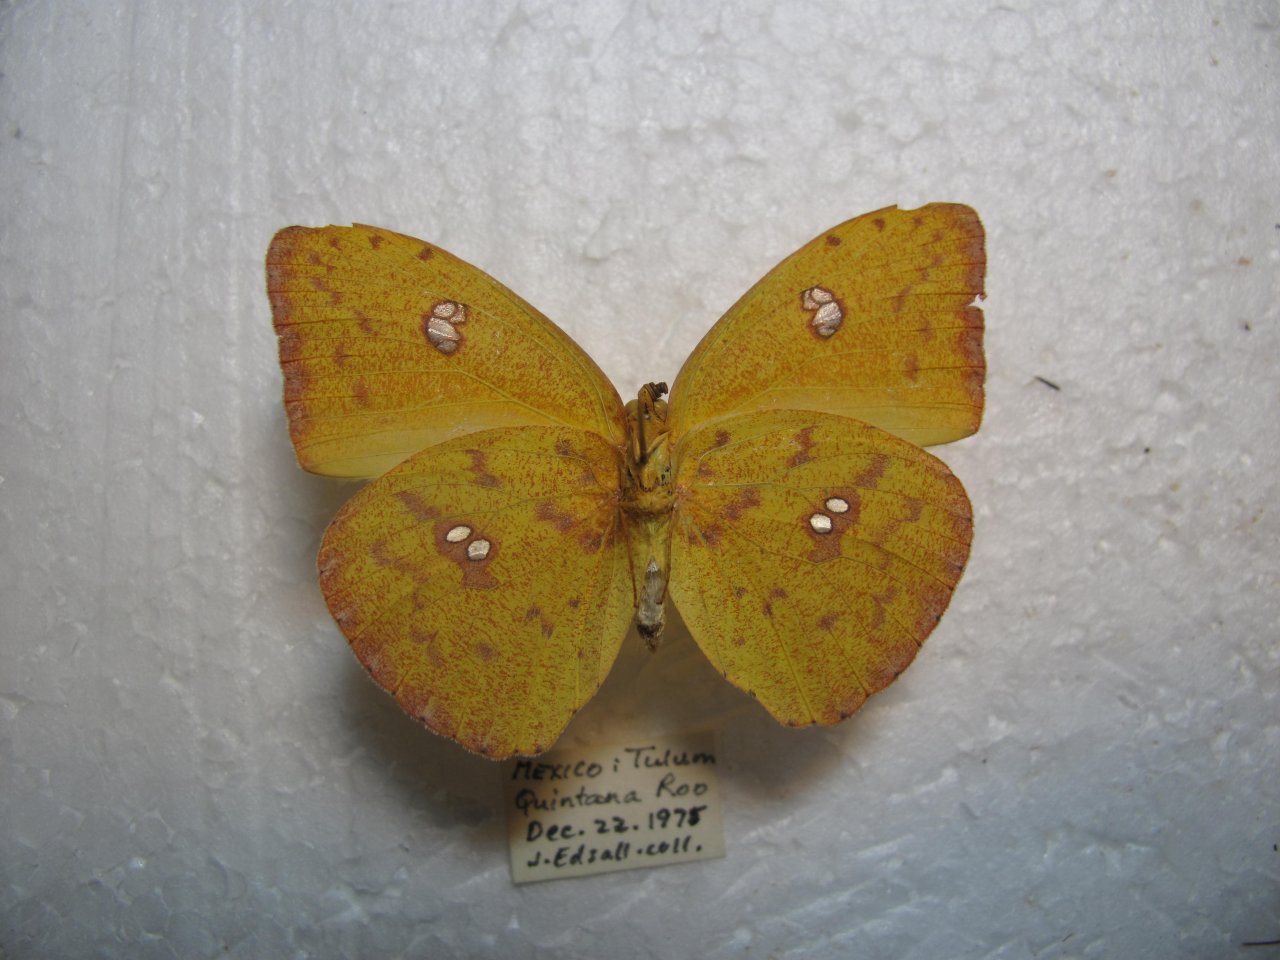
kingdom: Animalia
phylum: Arthropoda
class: Insecta
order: Lepidoptera
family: Pieridae
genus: Phoebis
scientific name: Phoebis argante
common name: Apricot Sulphur
